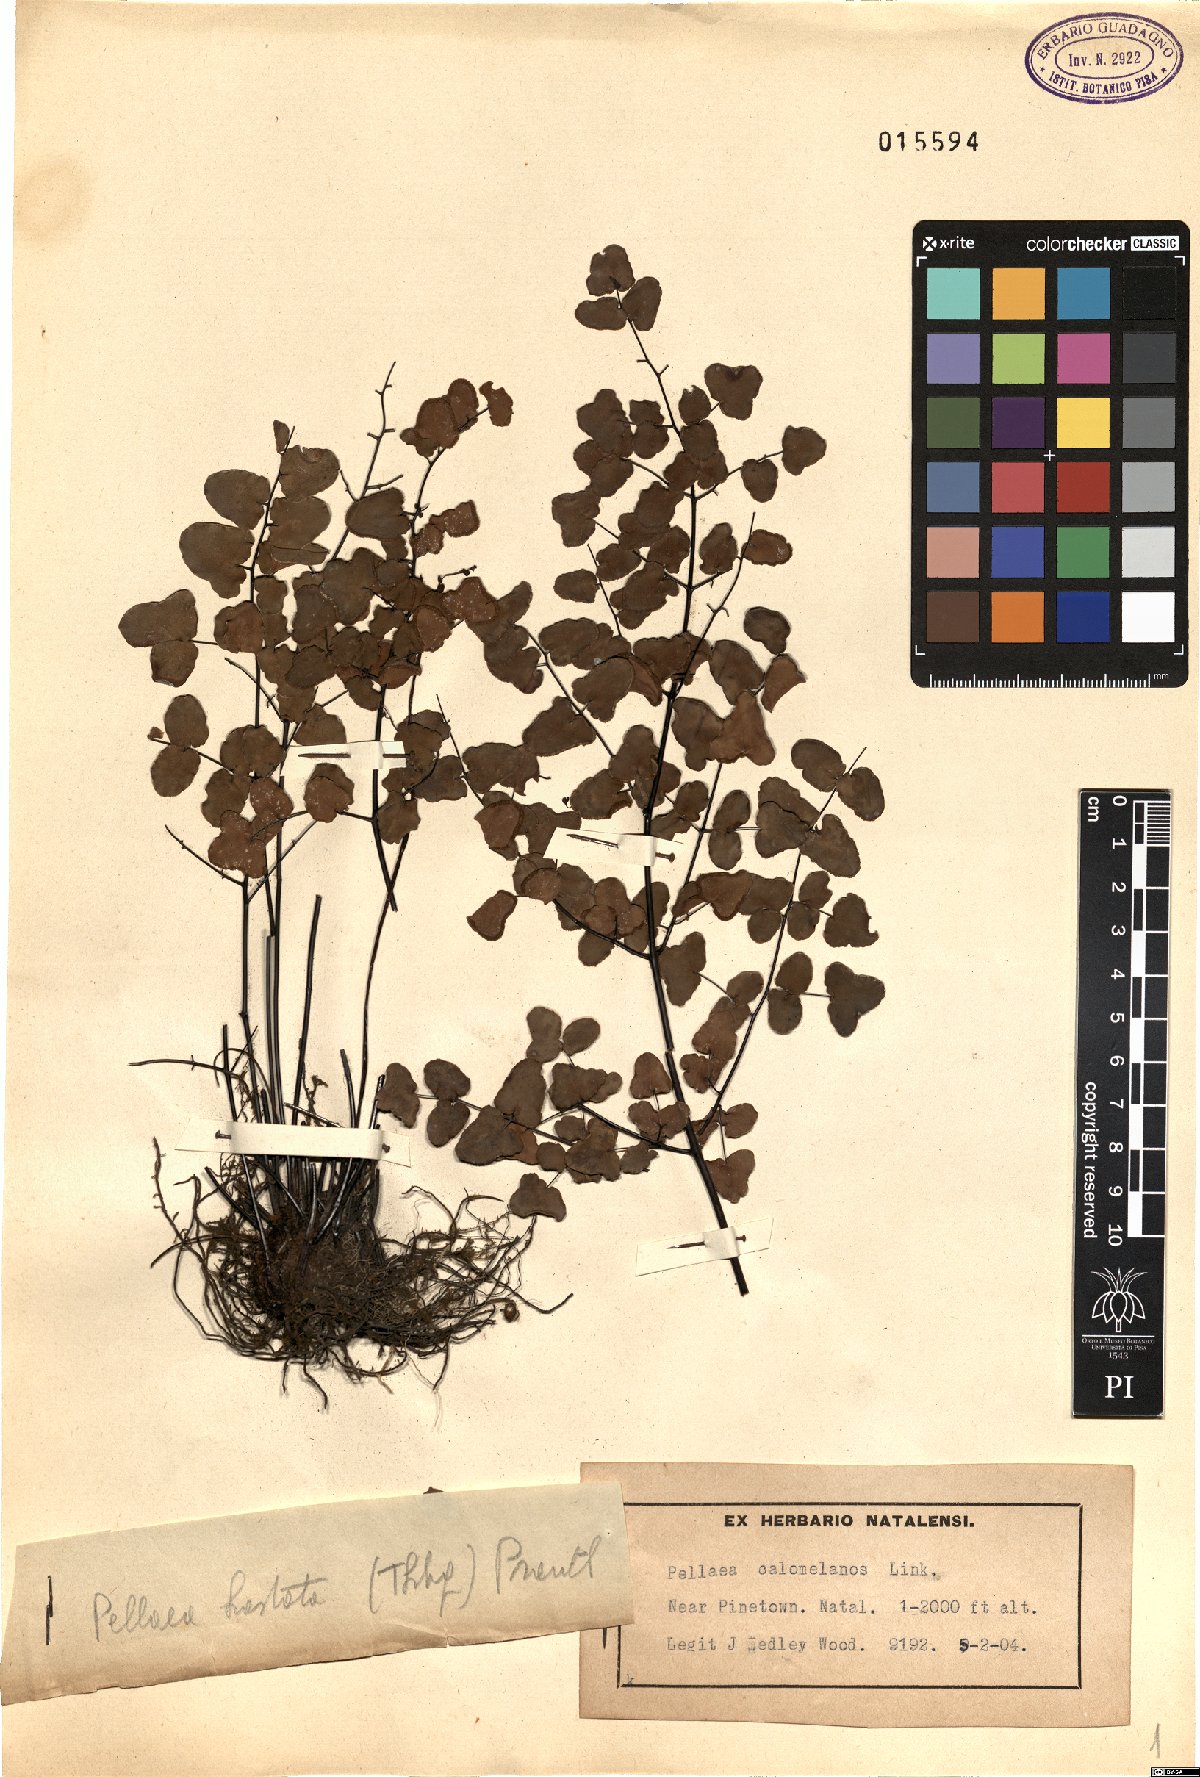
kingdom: Plantae
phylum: Tracheophyta
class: Polypodiopsida
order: Polypodiales
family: Pteridaceae
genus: Pellaea
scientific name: Pellaea calomelanos
